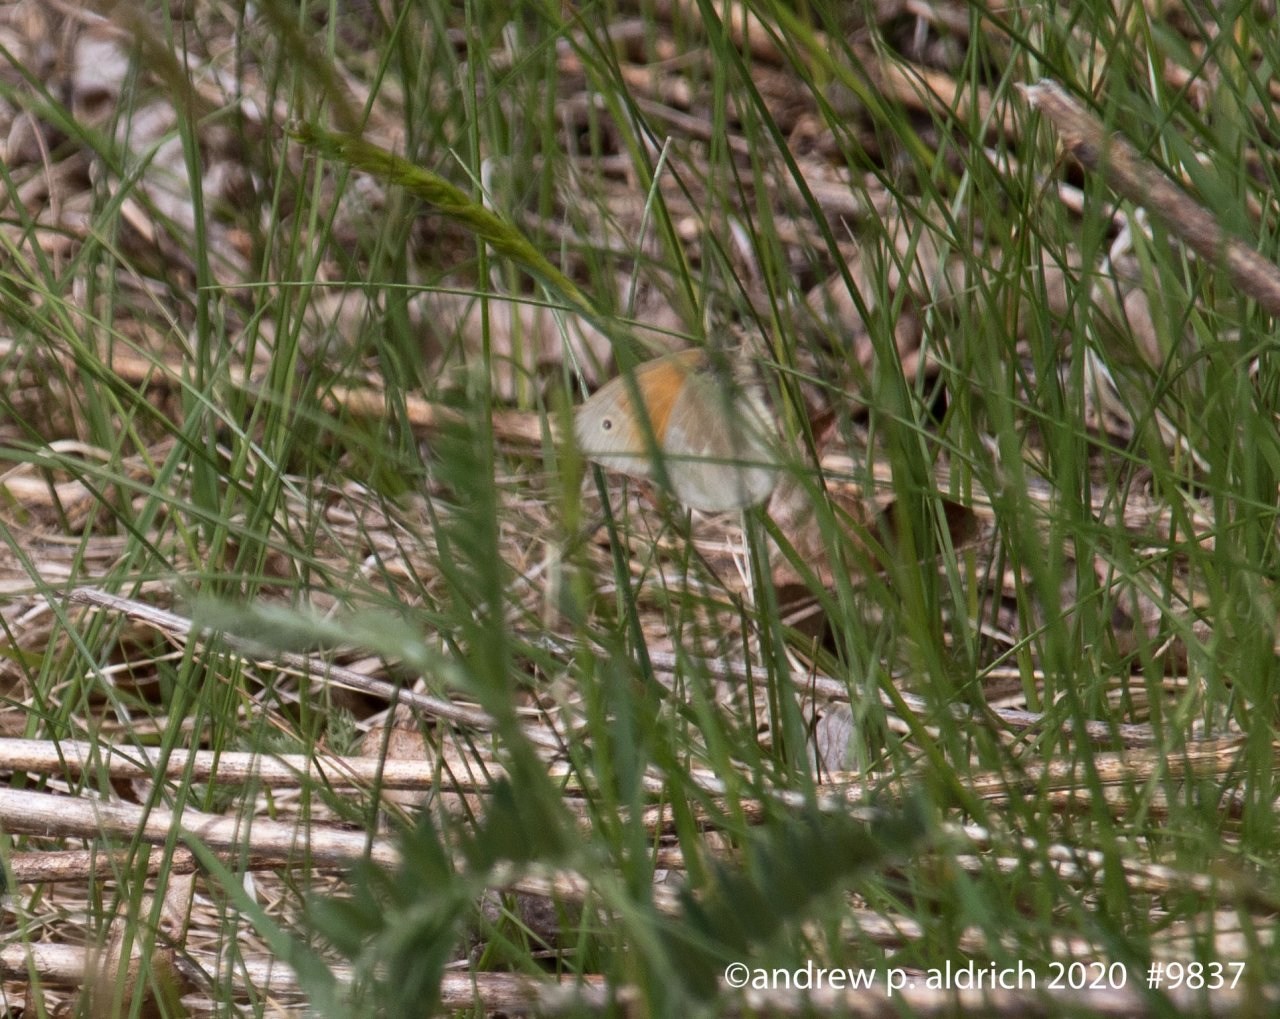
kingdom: Animalia
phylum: Arthropoda
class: Insecta
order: Lepidoptera
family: Nymphalidae
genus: Coenonympha
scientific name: Coenonympha tullia
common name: Large Heath
